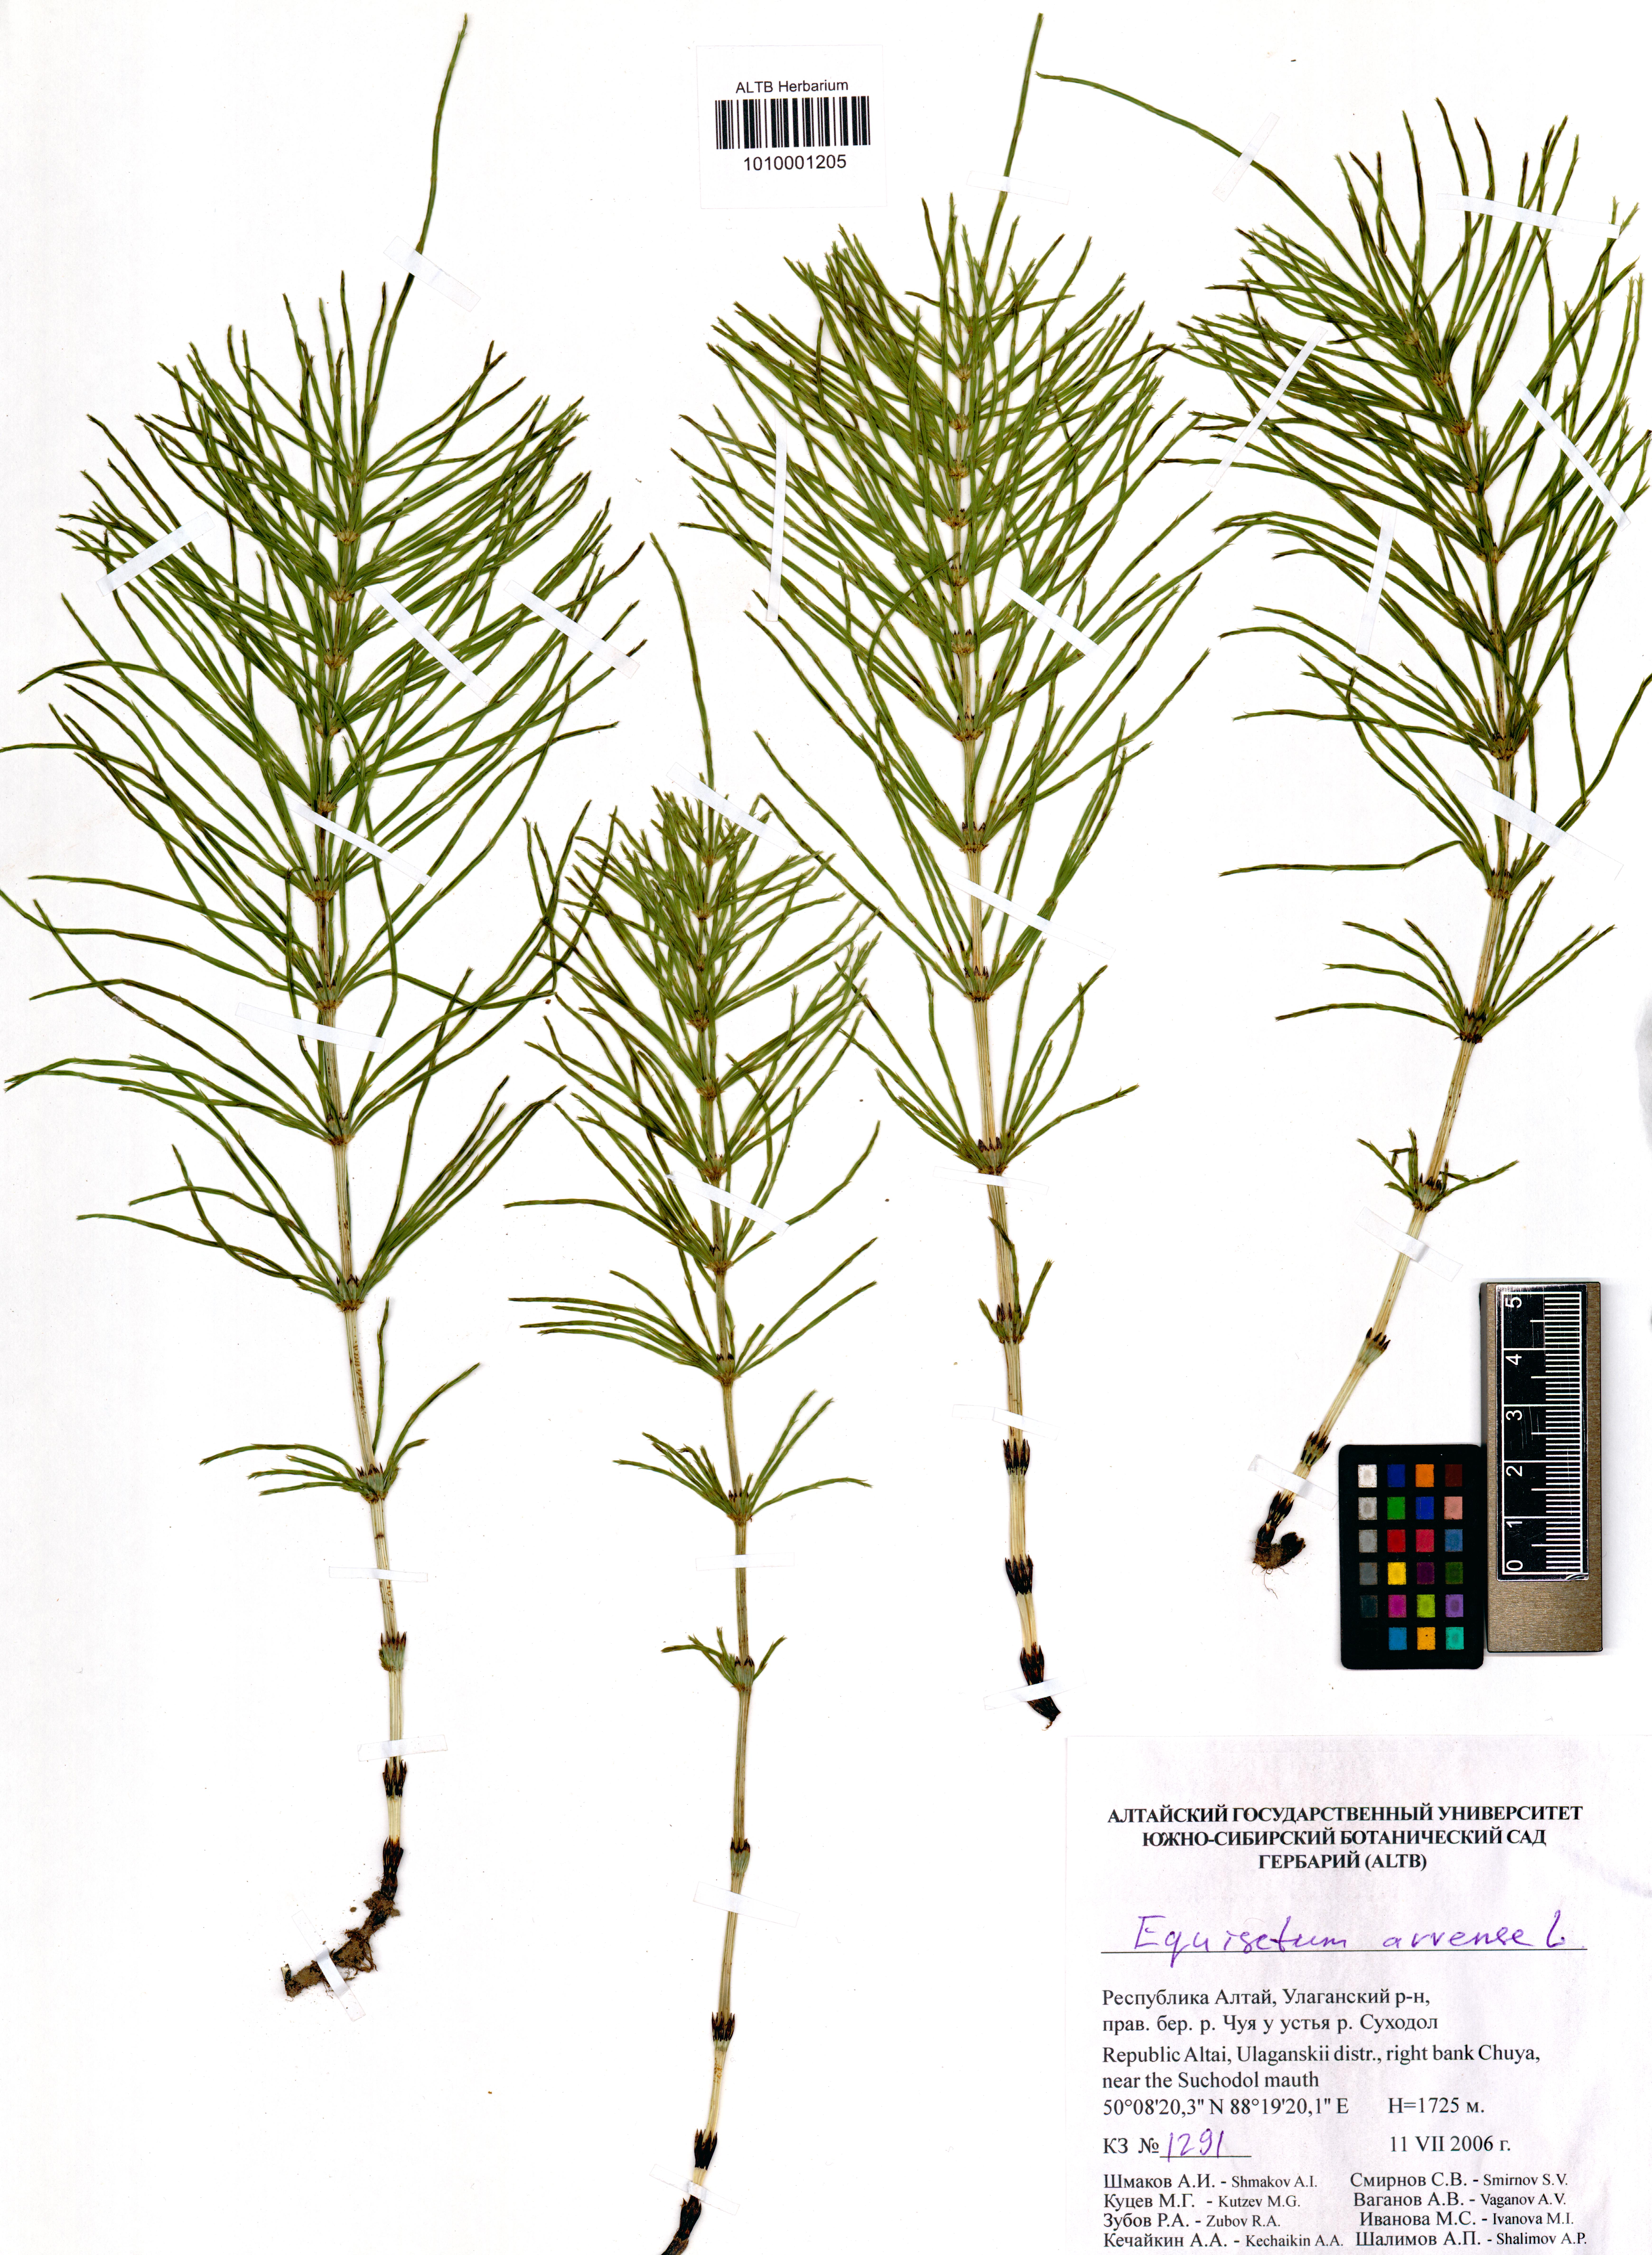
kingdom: Plantae
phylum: Tracheophyta
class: Polypodiopsida
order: Equisetales
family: Equisetaceae
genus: Equisetum
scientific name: Equisetum arvense
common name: Field horsetail
